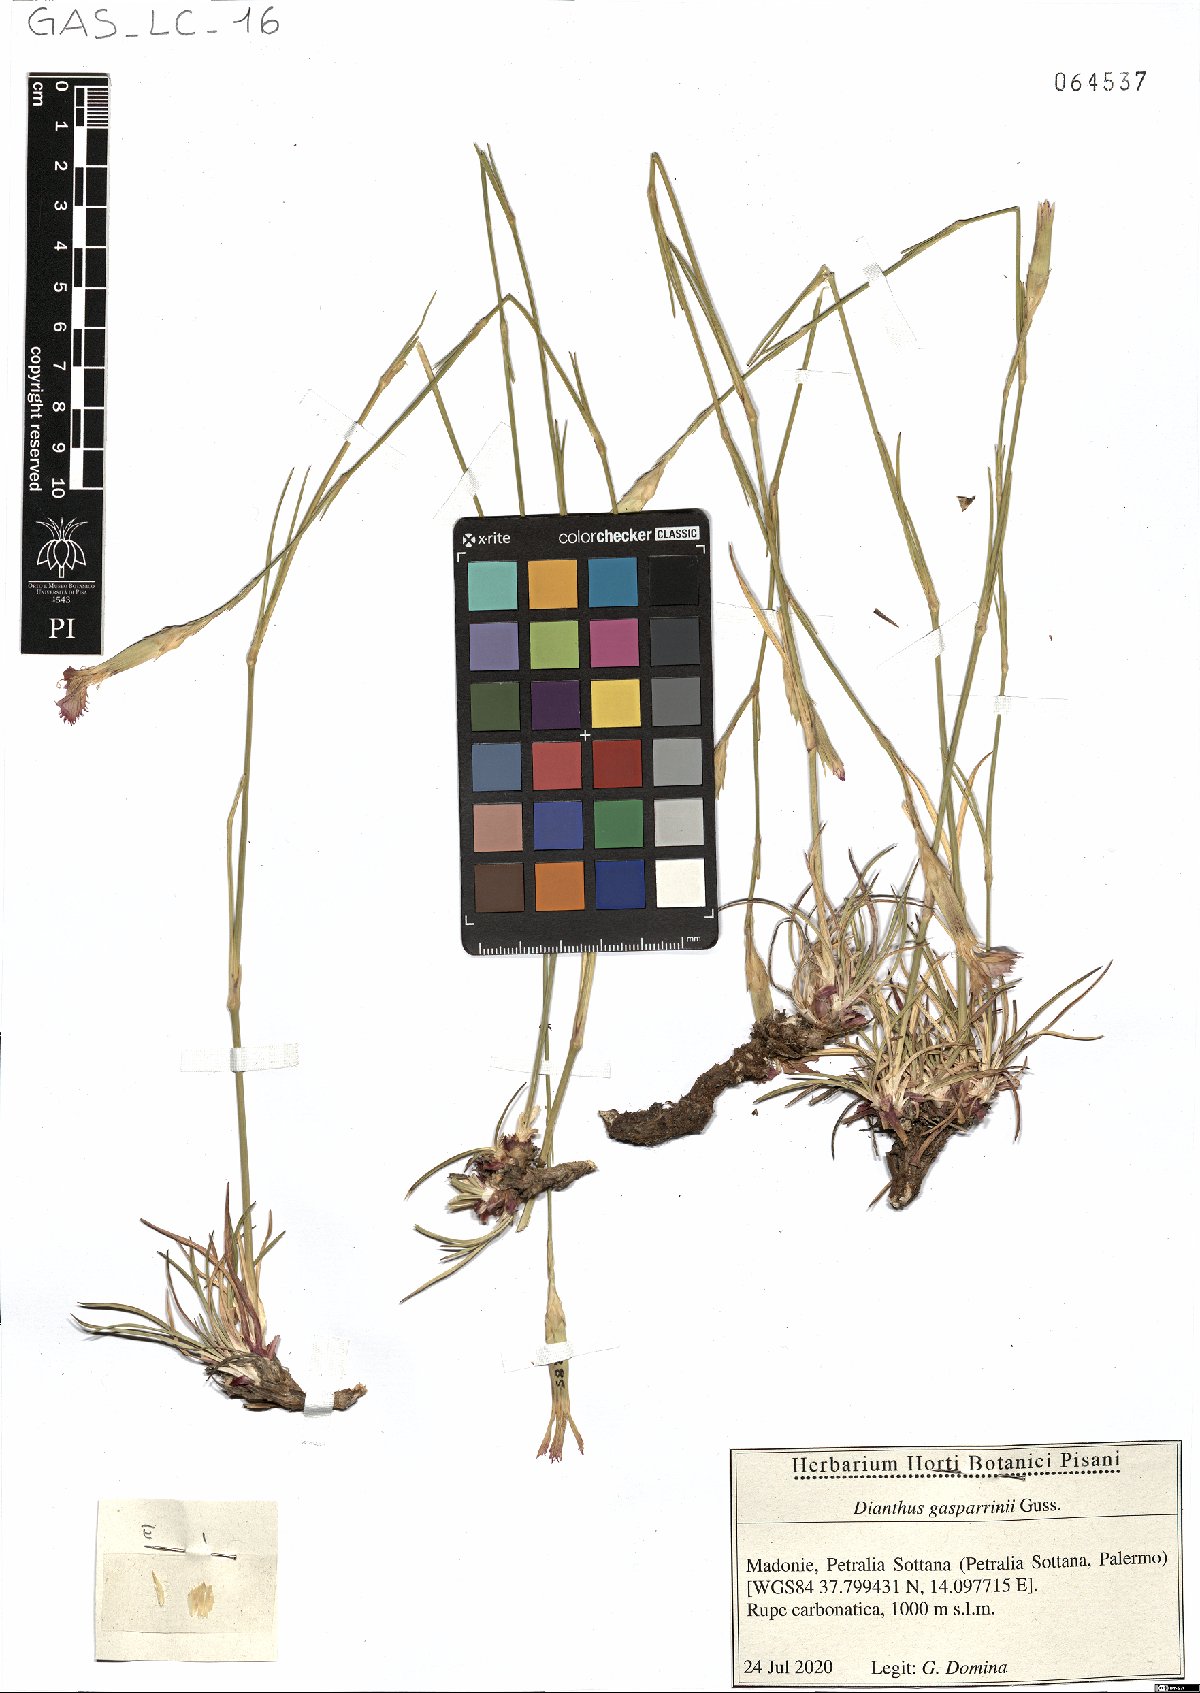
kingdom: Plantae
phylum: Tracheophyta
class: Magnoliopsida
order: Caryophyllales
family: Caryophyllaceae
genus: Dianthus
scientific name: Dianthus gasparrinii
